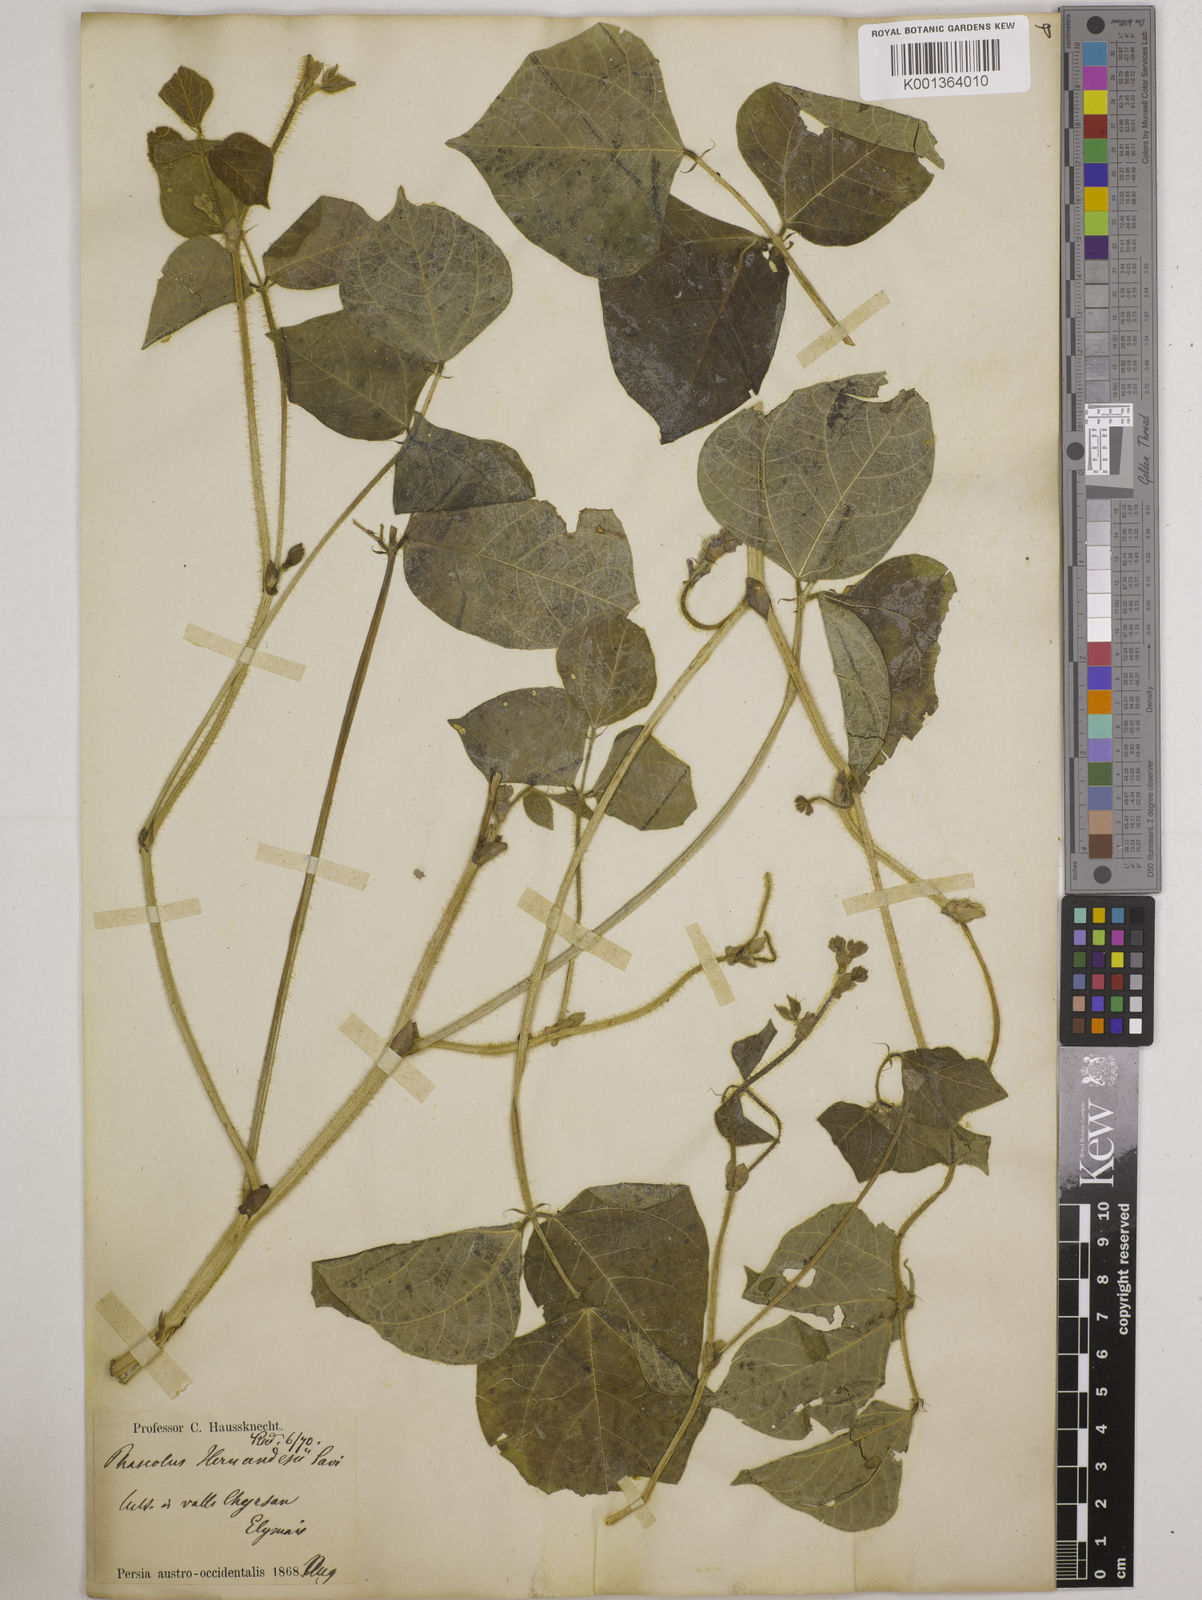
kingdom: Plantae
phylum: Tracheophyta
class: Magnoliopsida
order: Fabales
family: Fabaceae
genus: Vigna
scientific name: Vigna radiata
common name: Mung-bean
